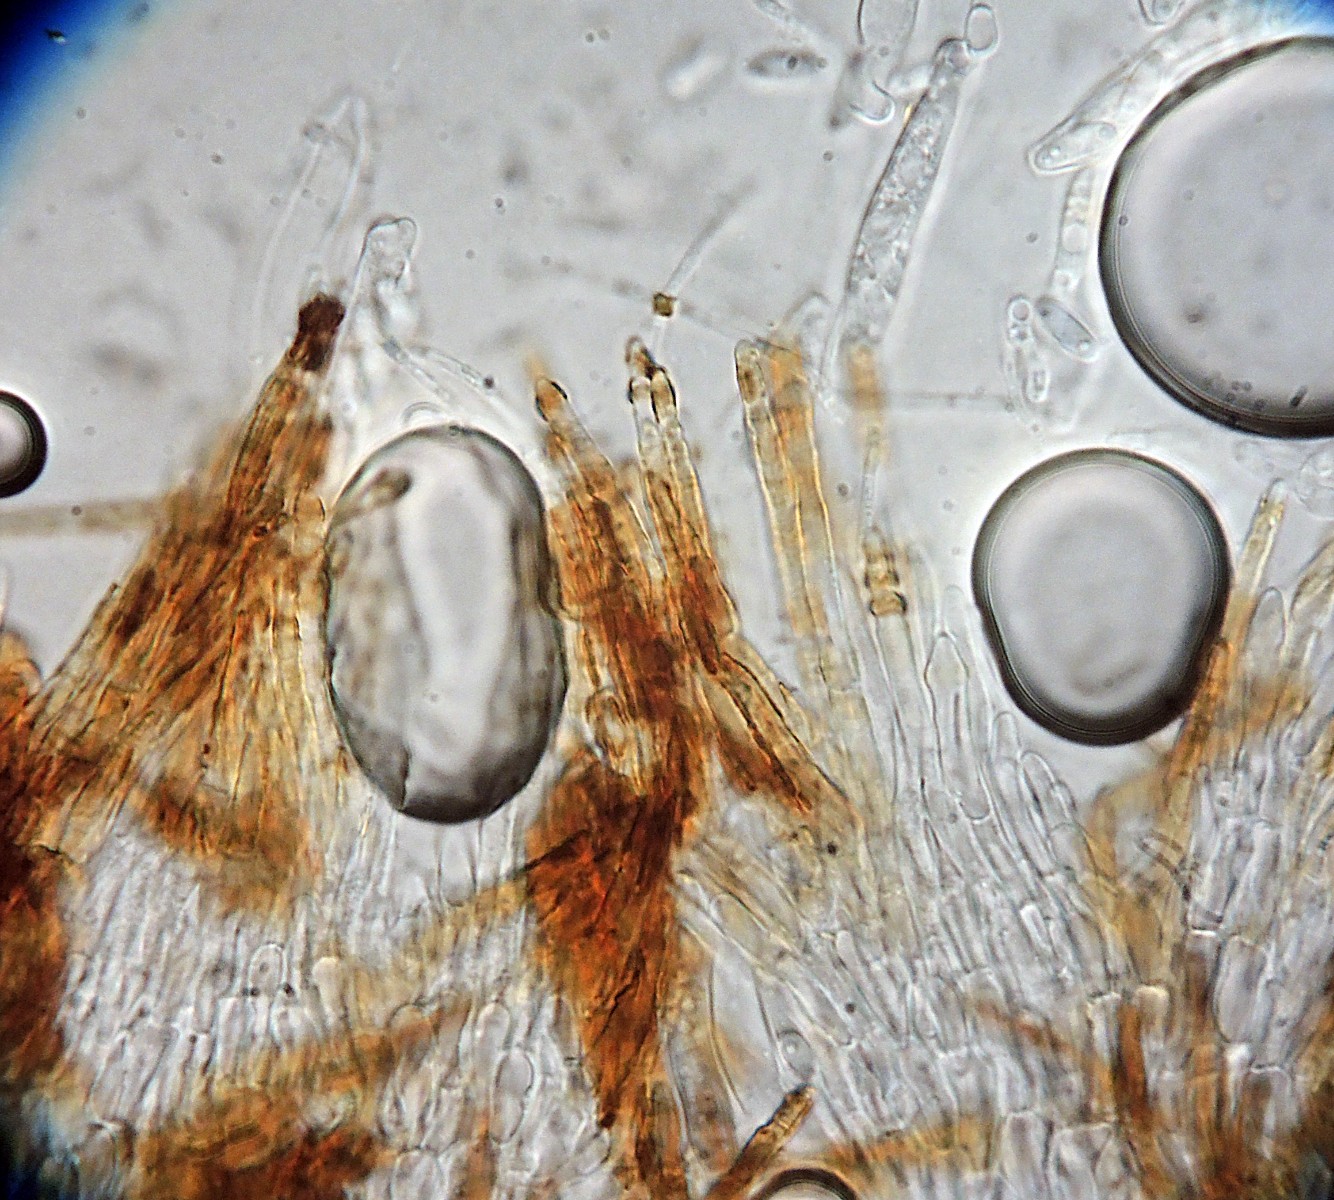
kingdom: Fungi
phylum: Ascomycota
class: Leotiomycetes
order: Helotiales
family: Hyaloscyphaceae
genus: Protounguicularia
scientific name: Protounguicularia transiens
